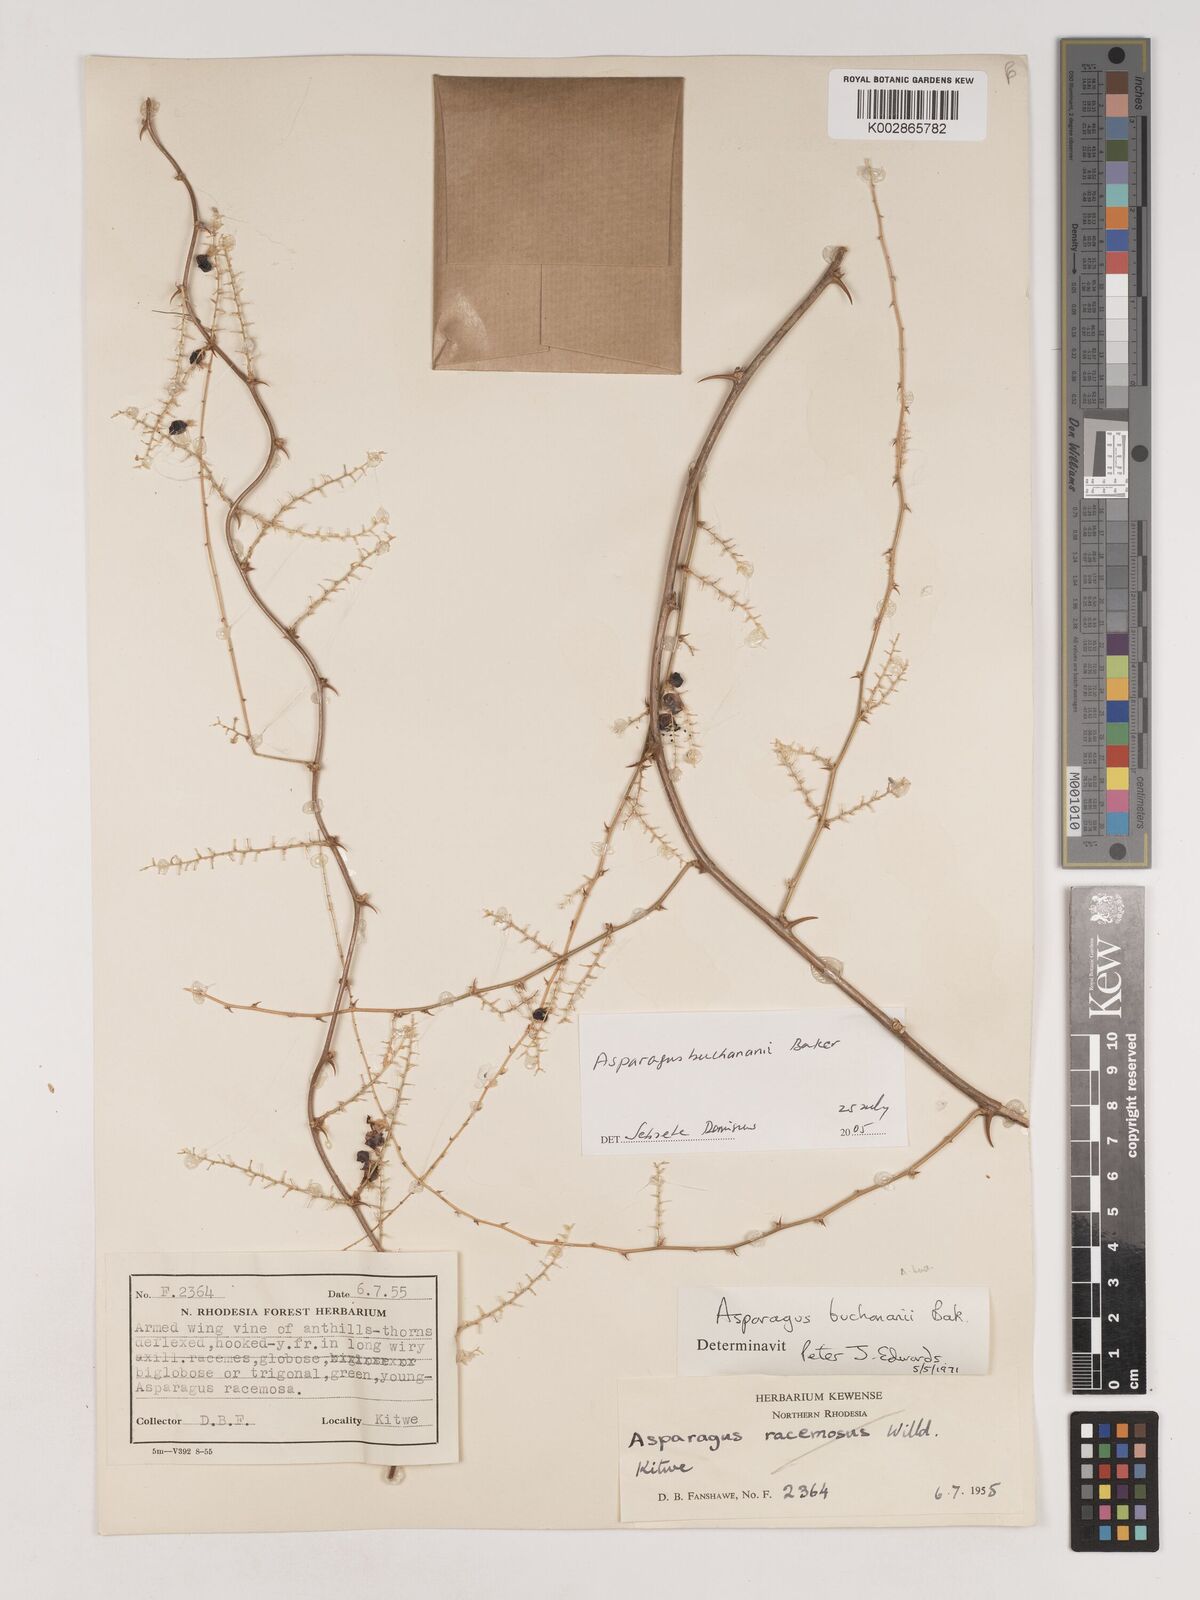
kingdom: Plantae
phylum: Tracheophyta
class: Liliopsida
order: Asparagales
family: Asparagaceae
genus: Asparagus
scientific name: Asparagus buchananii
